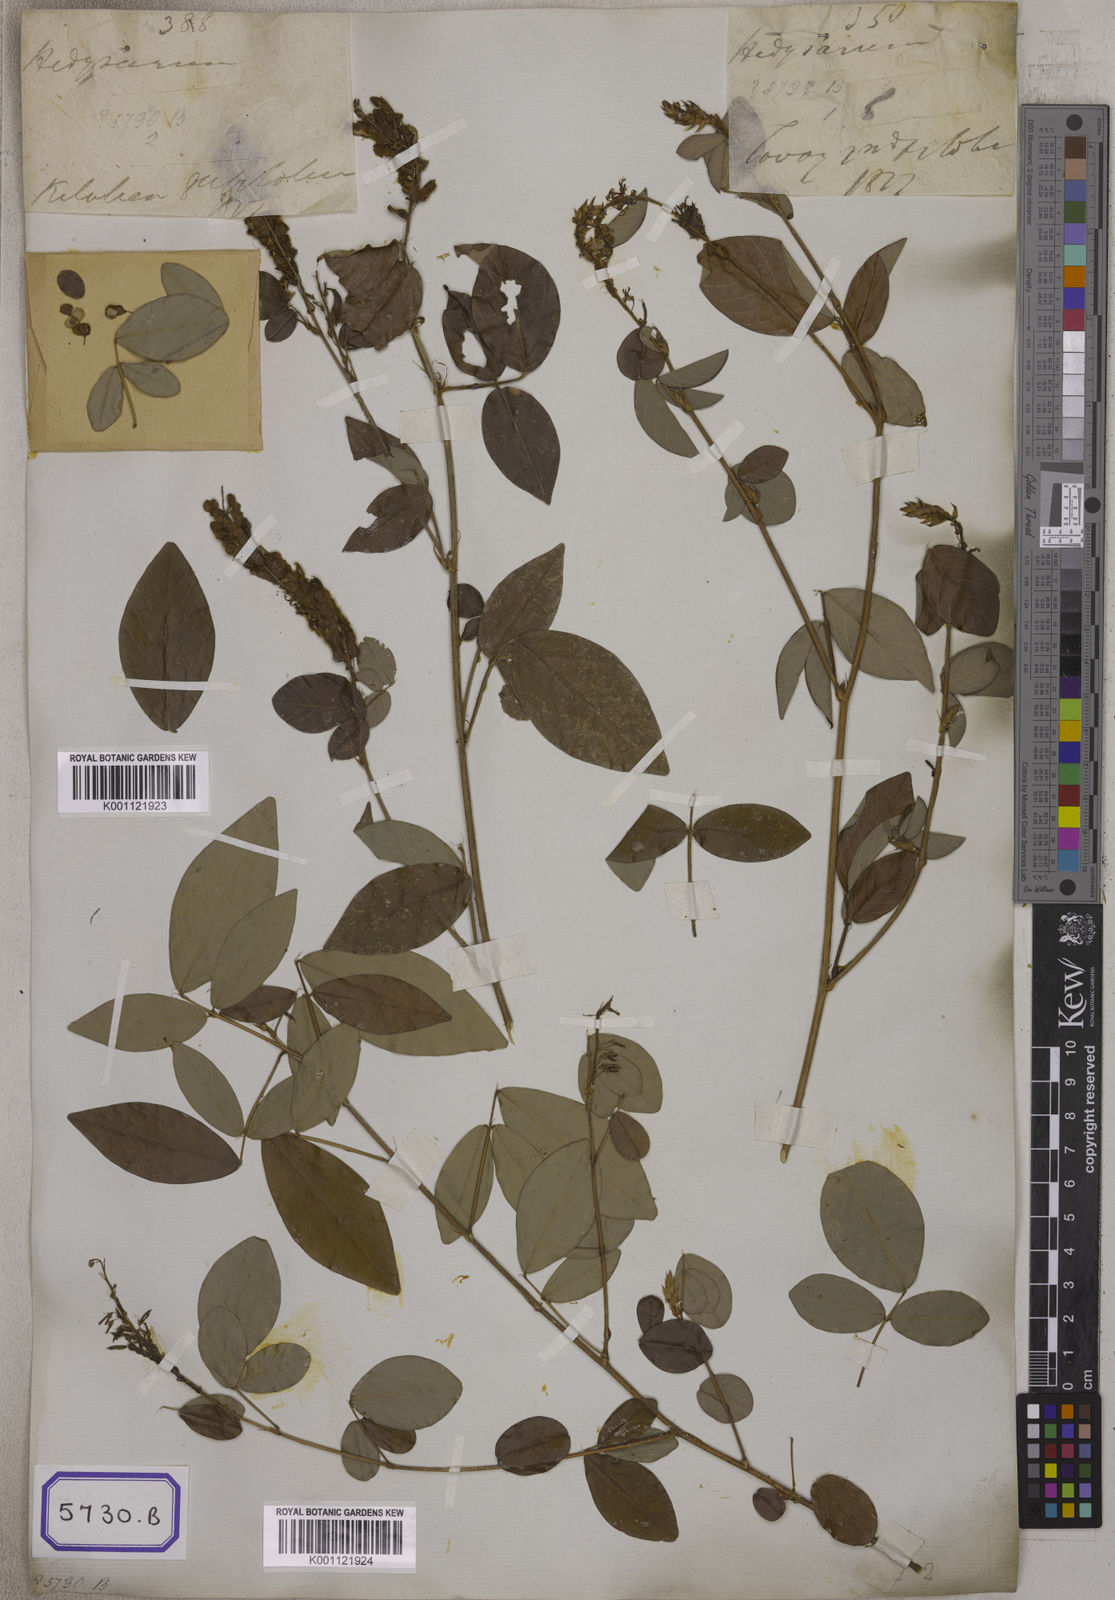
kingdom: Plantae
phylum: Tracheophyta
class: Magnoliopsida
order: Fabales
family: Fabaceae
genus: Desmodium
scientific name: Desmodium
